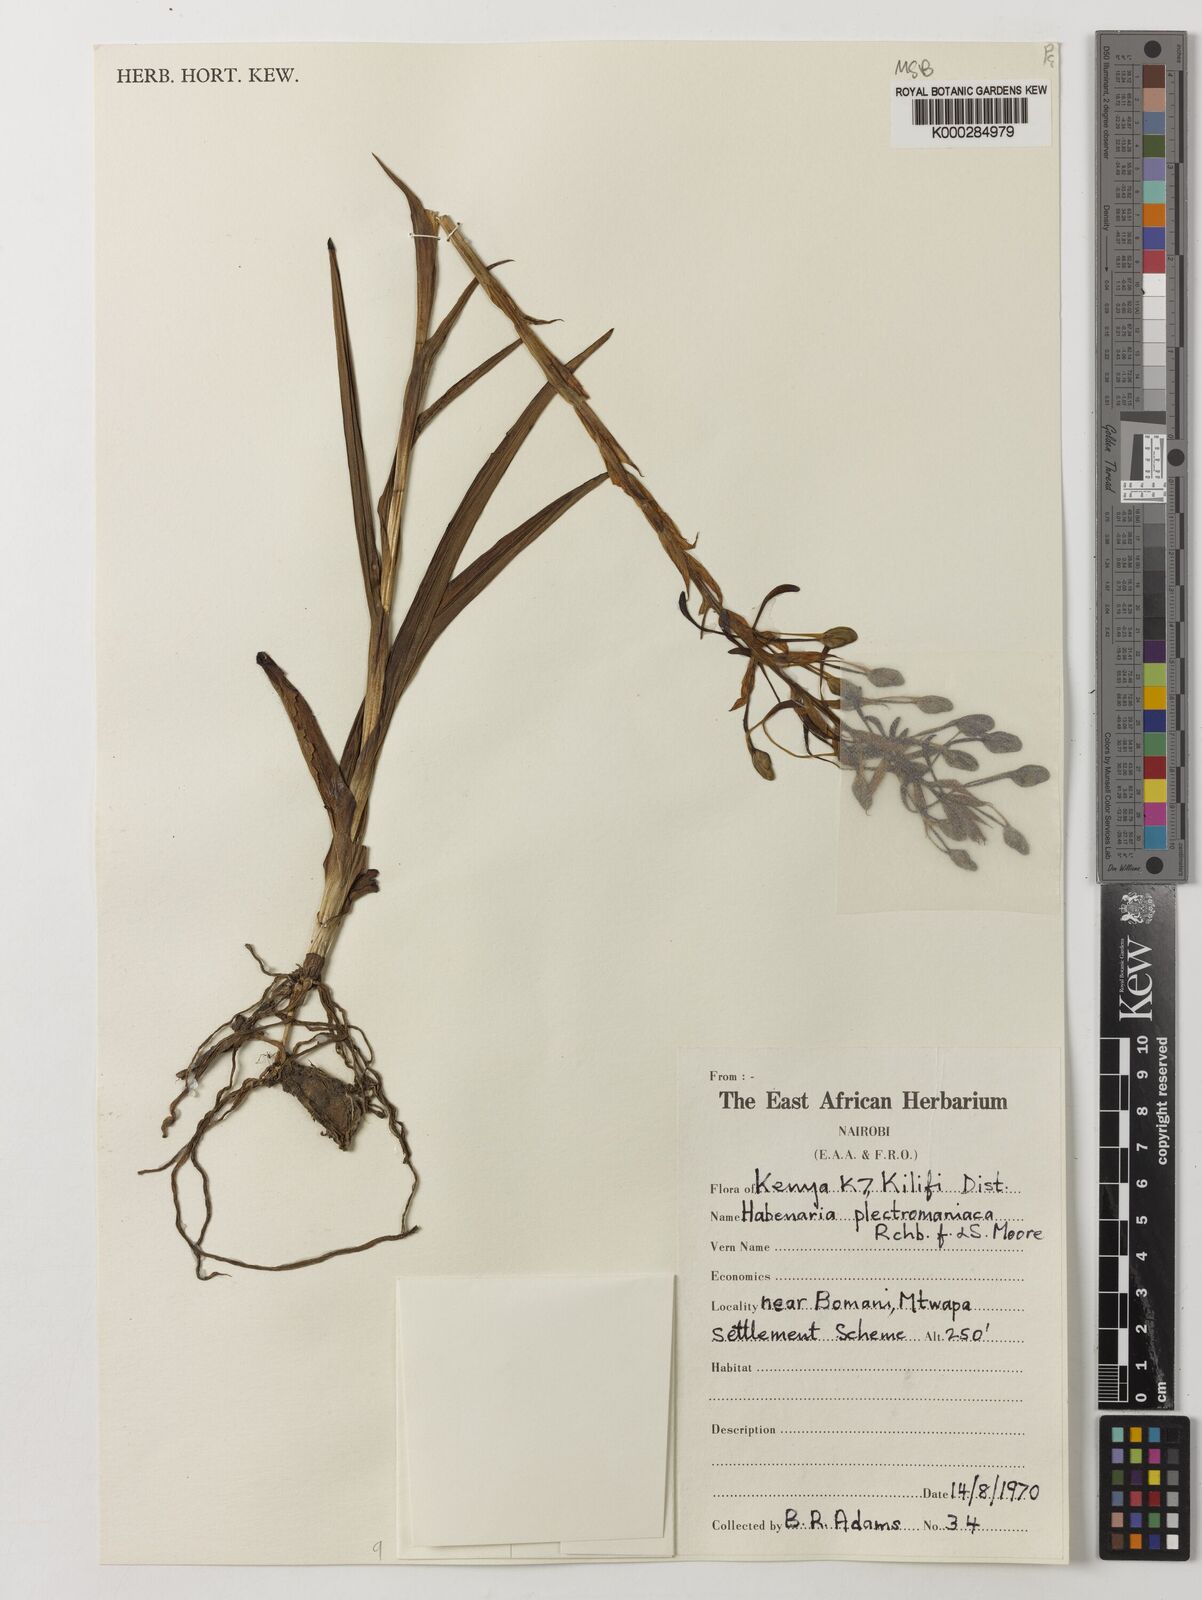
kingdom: Plantae
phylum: Tracheophyta
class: Liliopsida
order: Asparagales
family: Orchidaceae
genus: Habenaria
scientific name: Habenaria plectromaniaca
